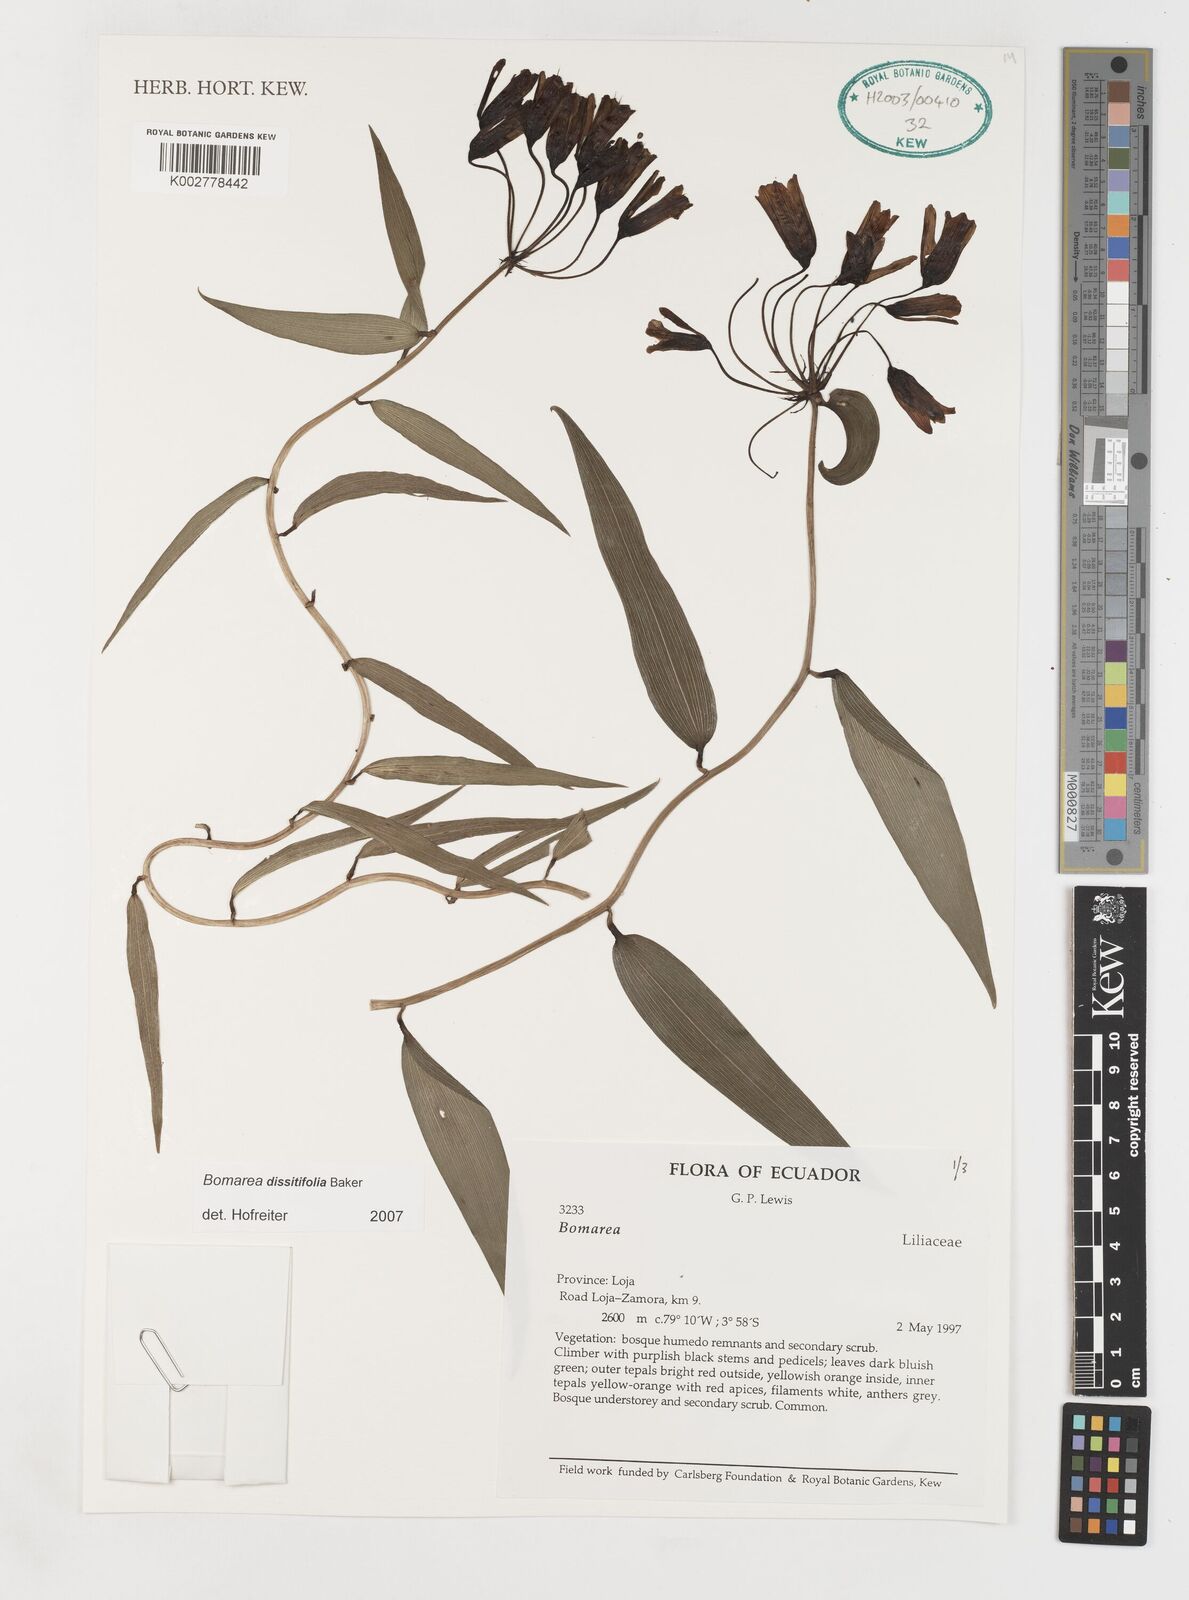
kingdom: Plantae
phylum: Tracheophyta
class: Liliopsida
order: Liliales
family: Alstroemeriaceae
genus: Bomarea
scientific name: Bomarea dissitifolia
